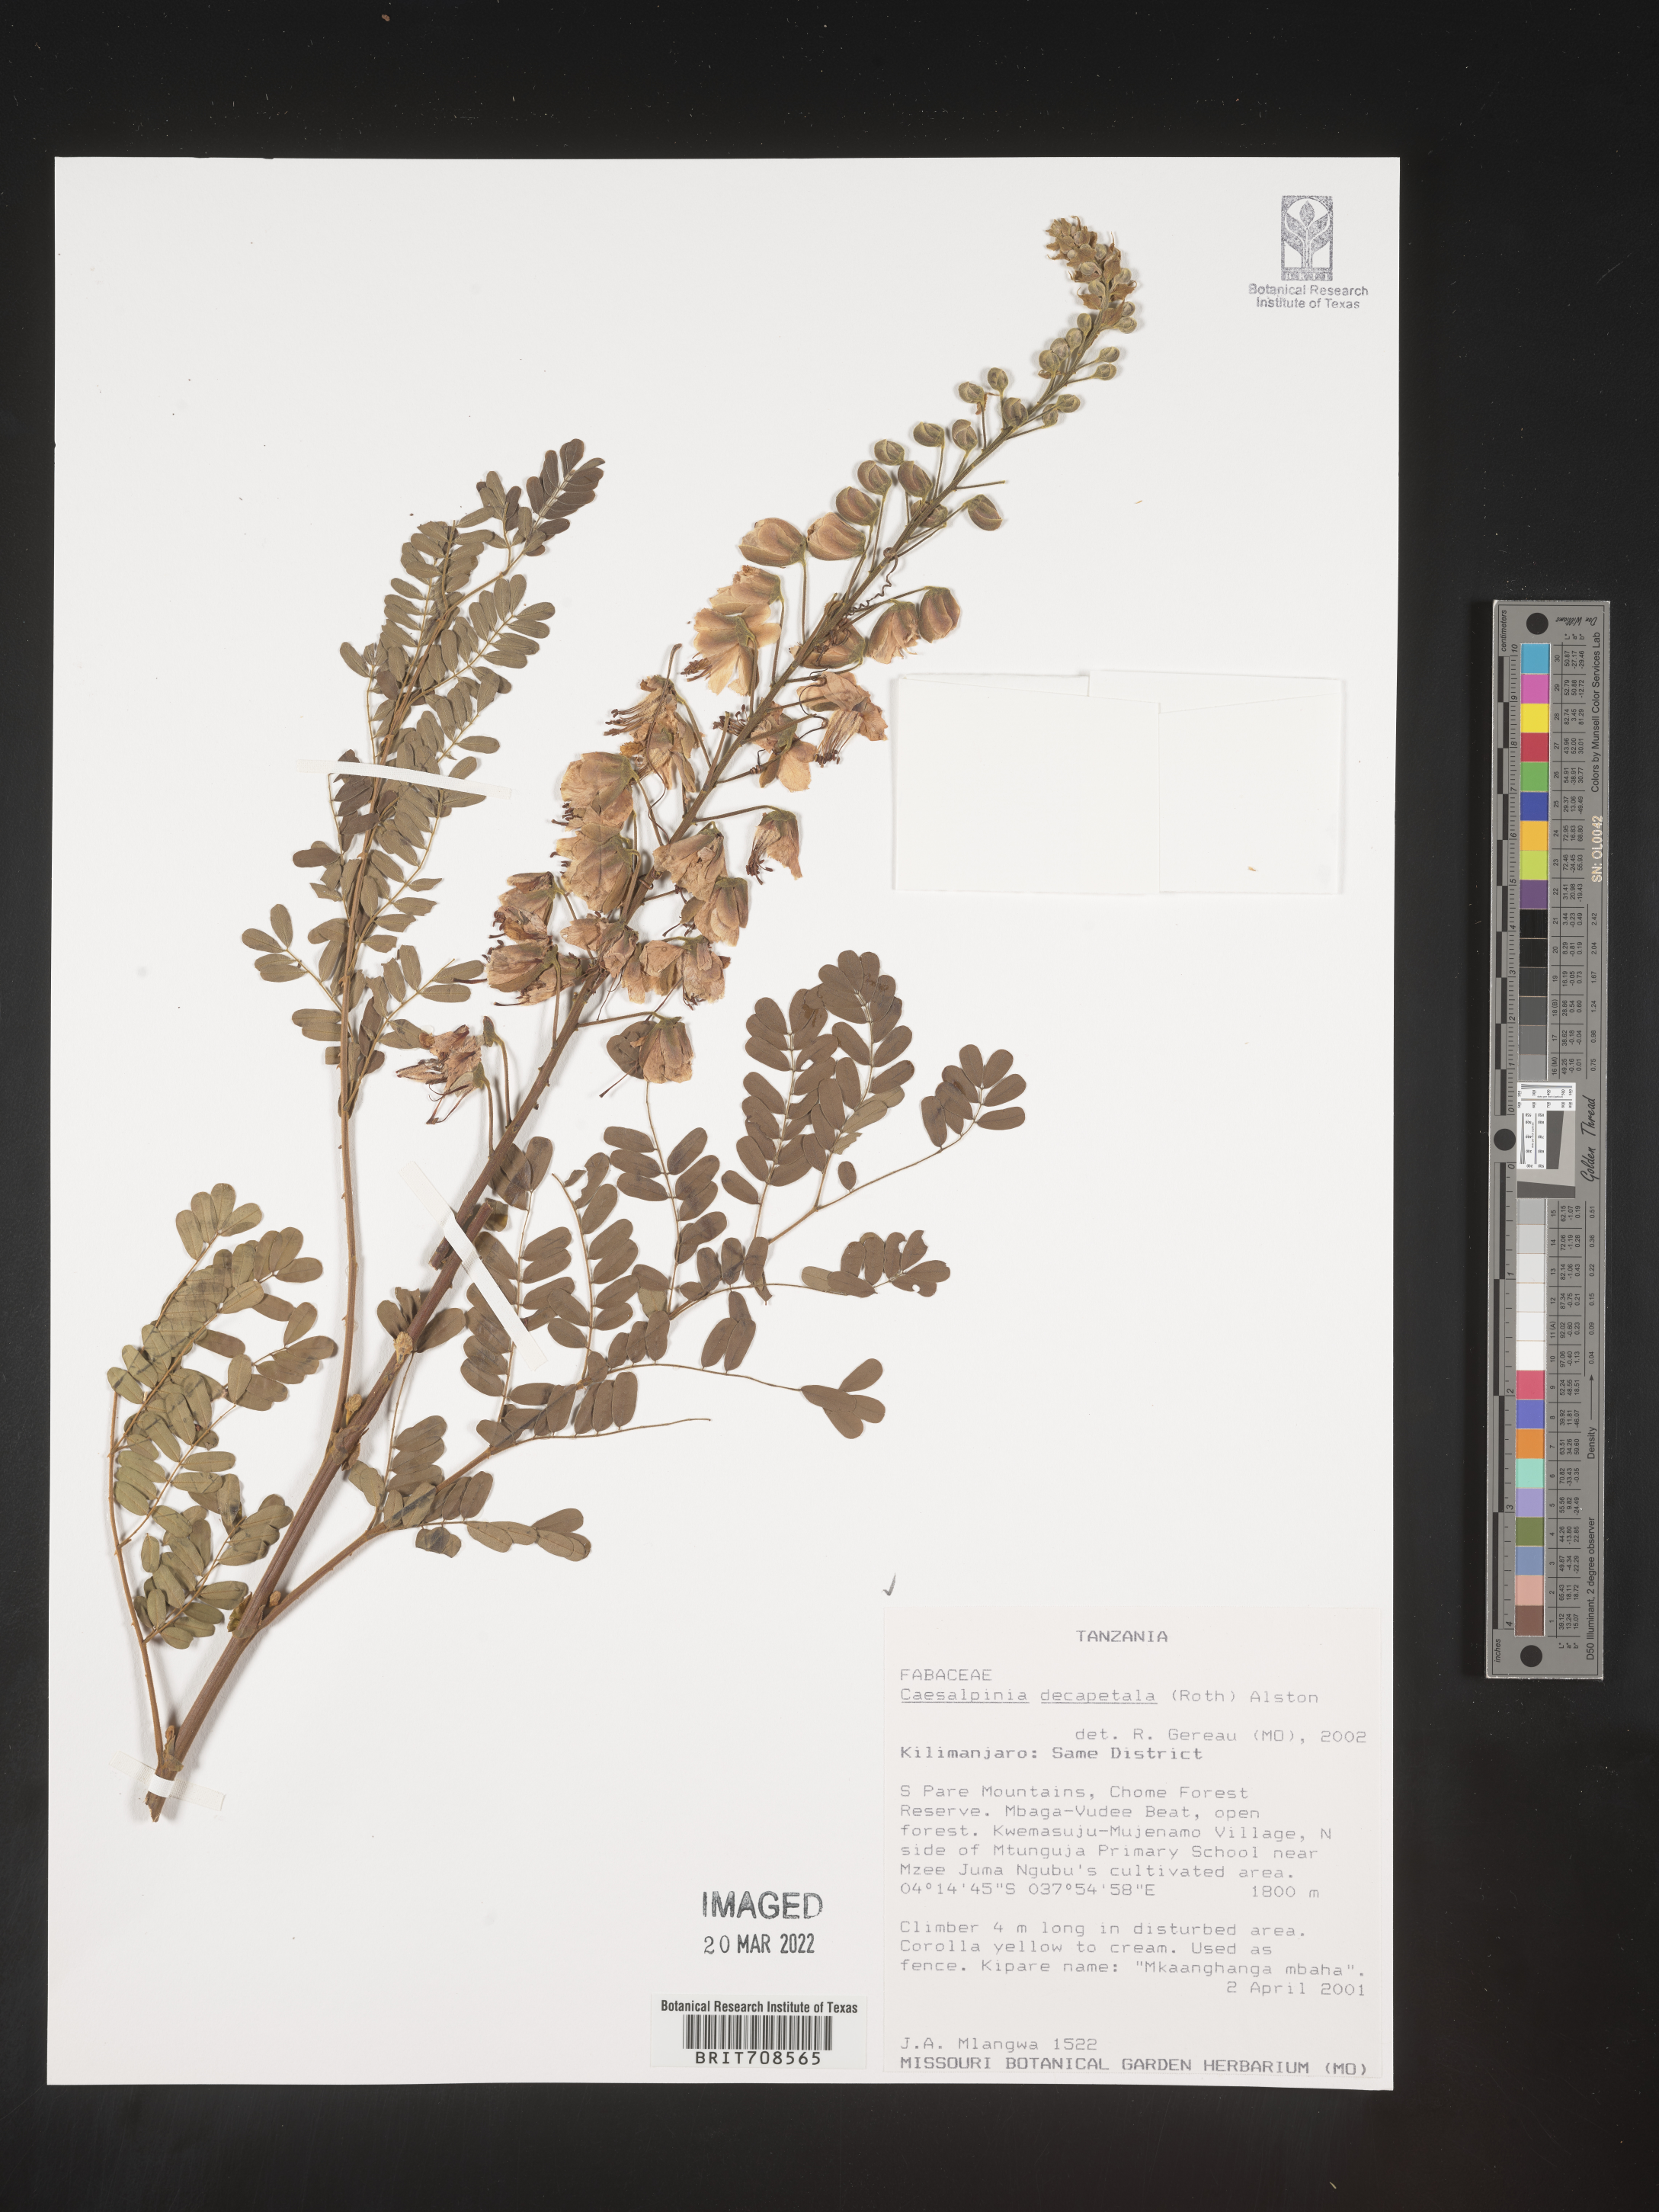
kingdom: Plantae
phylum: Tracheophyta
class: Magnoliopsida
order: Fabales
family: Fabaceae
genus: Caesalpinia
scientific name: Caesalpinia
